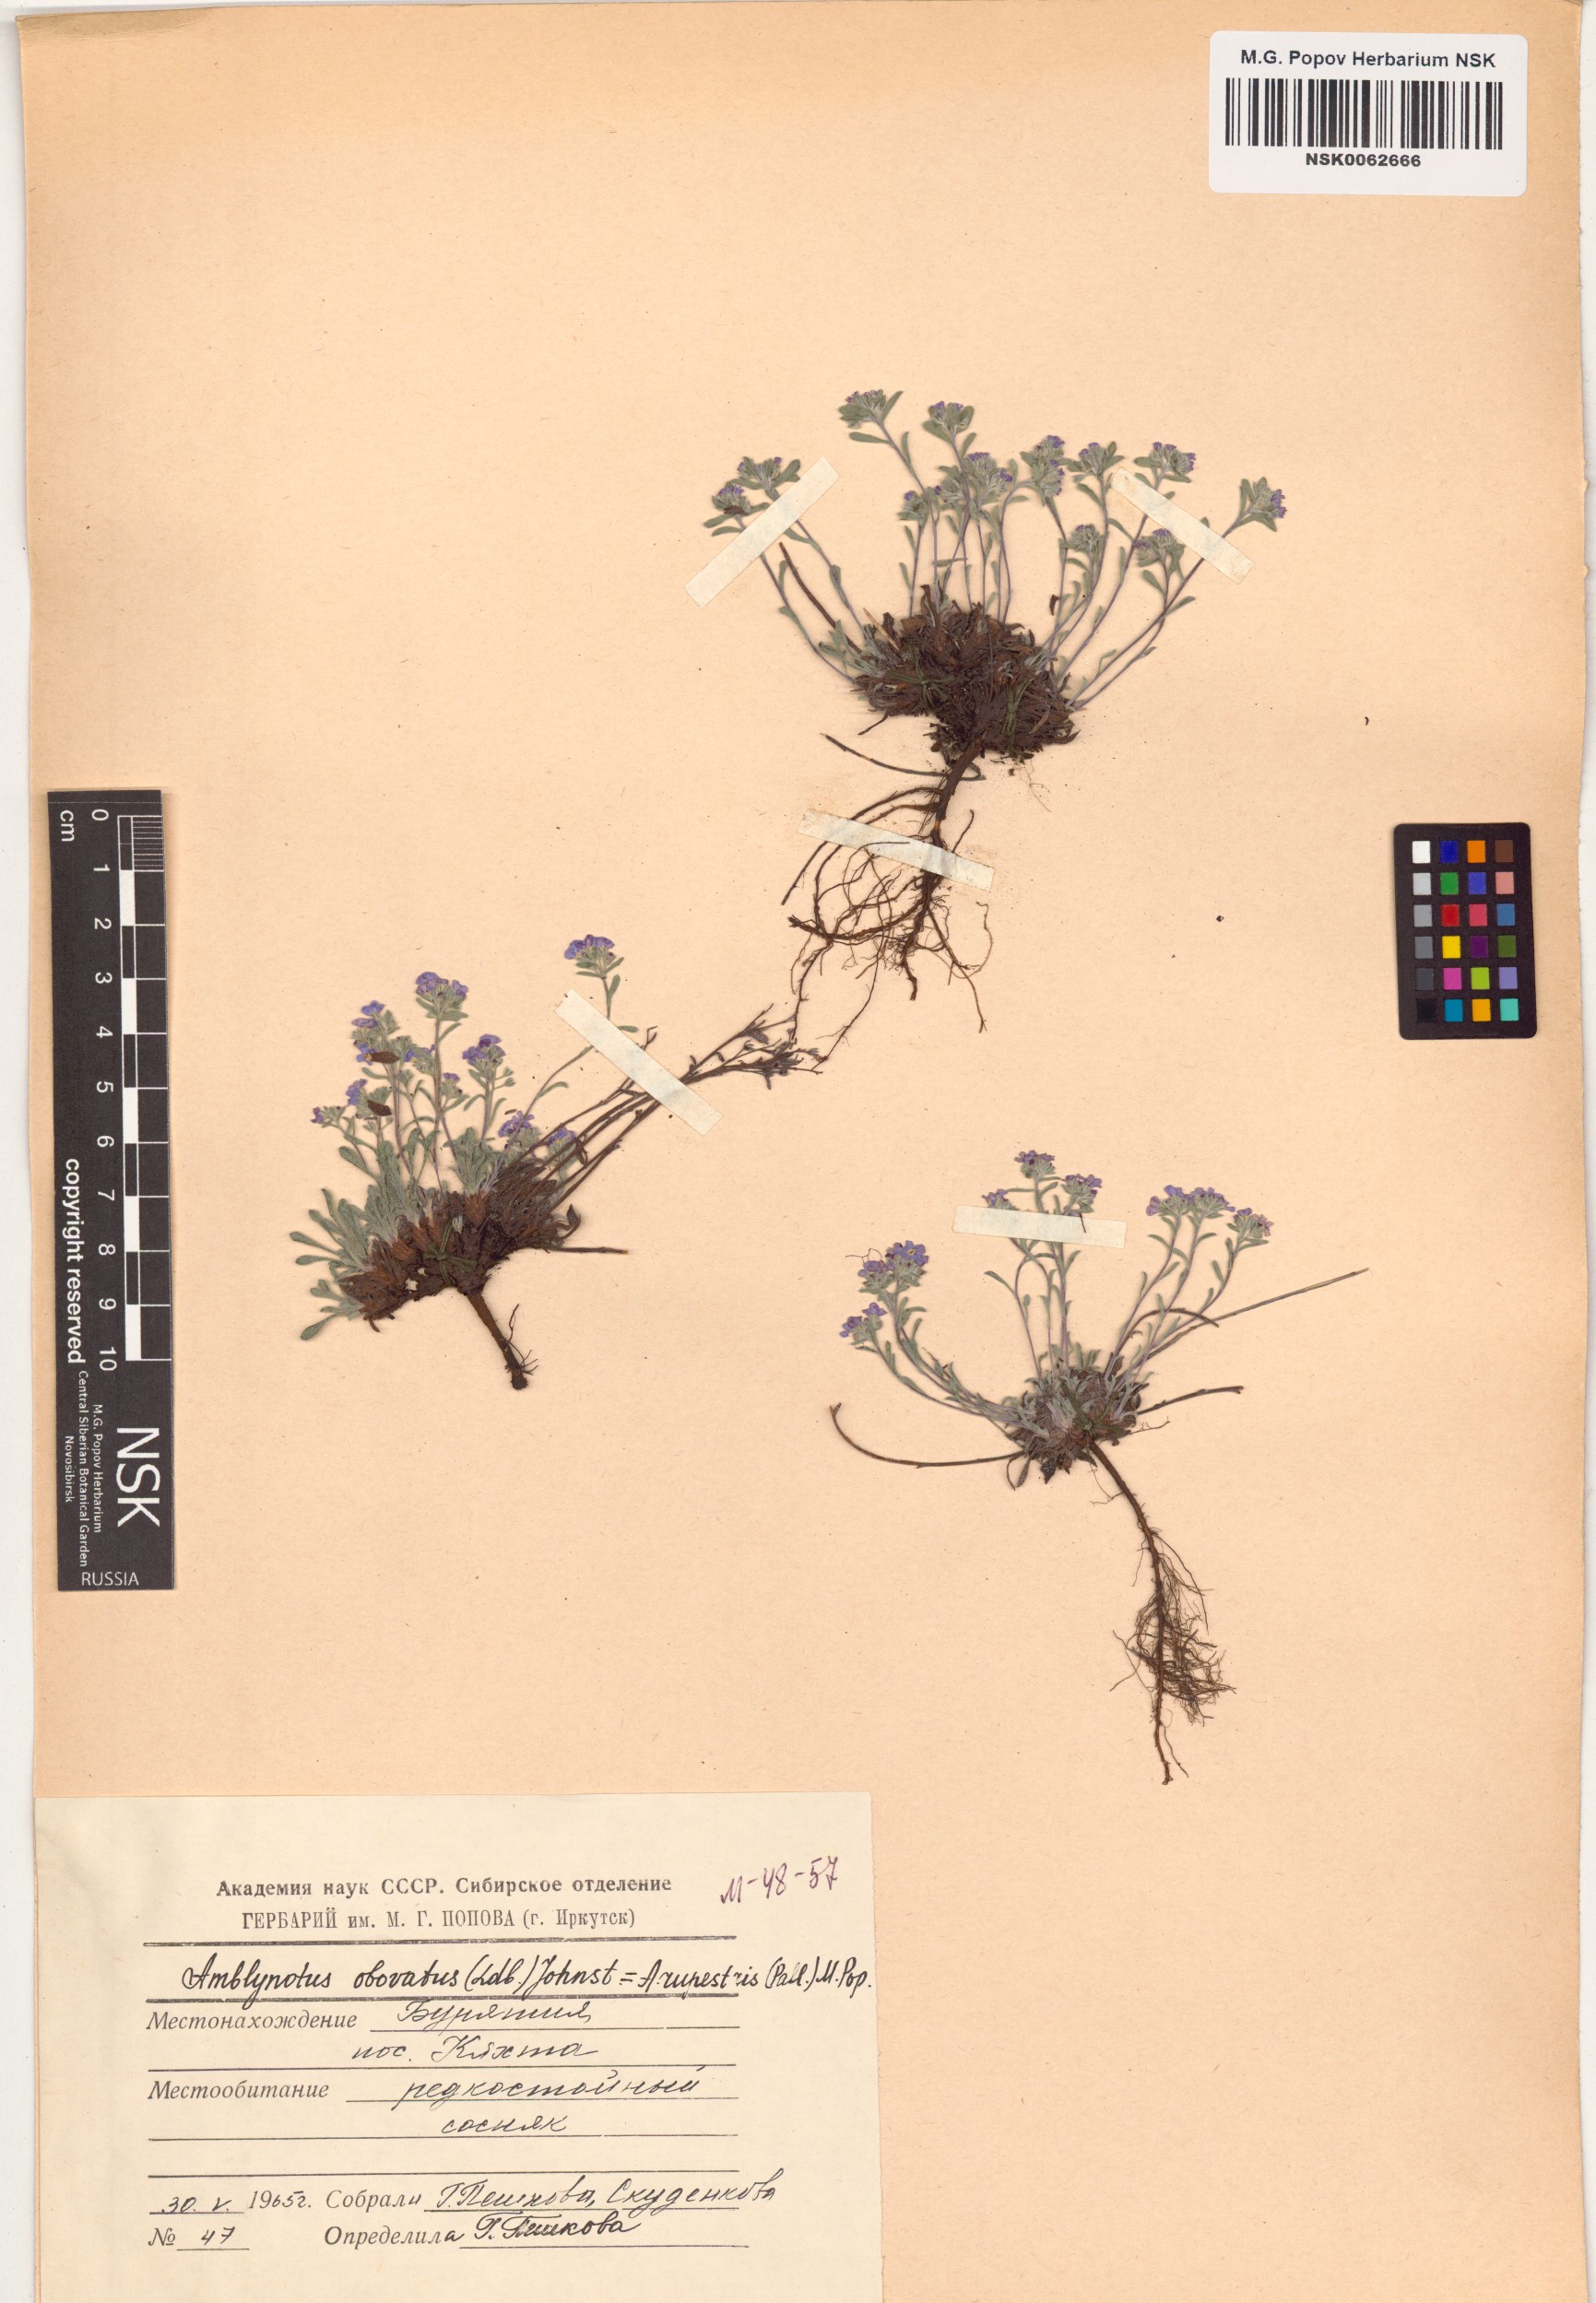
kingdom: Plantae
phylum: Tracheophyta
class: Magnoliopsida
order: Boraginales
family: Boraginaceae
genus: Eritrichium
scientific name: Eritrichium rupestre
